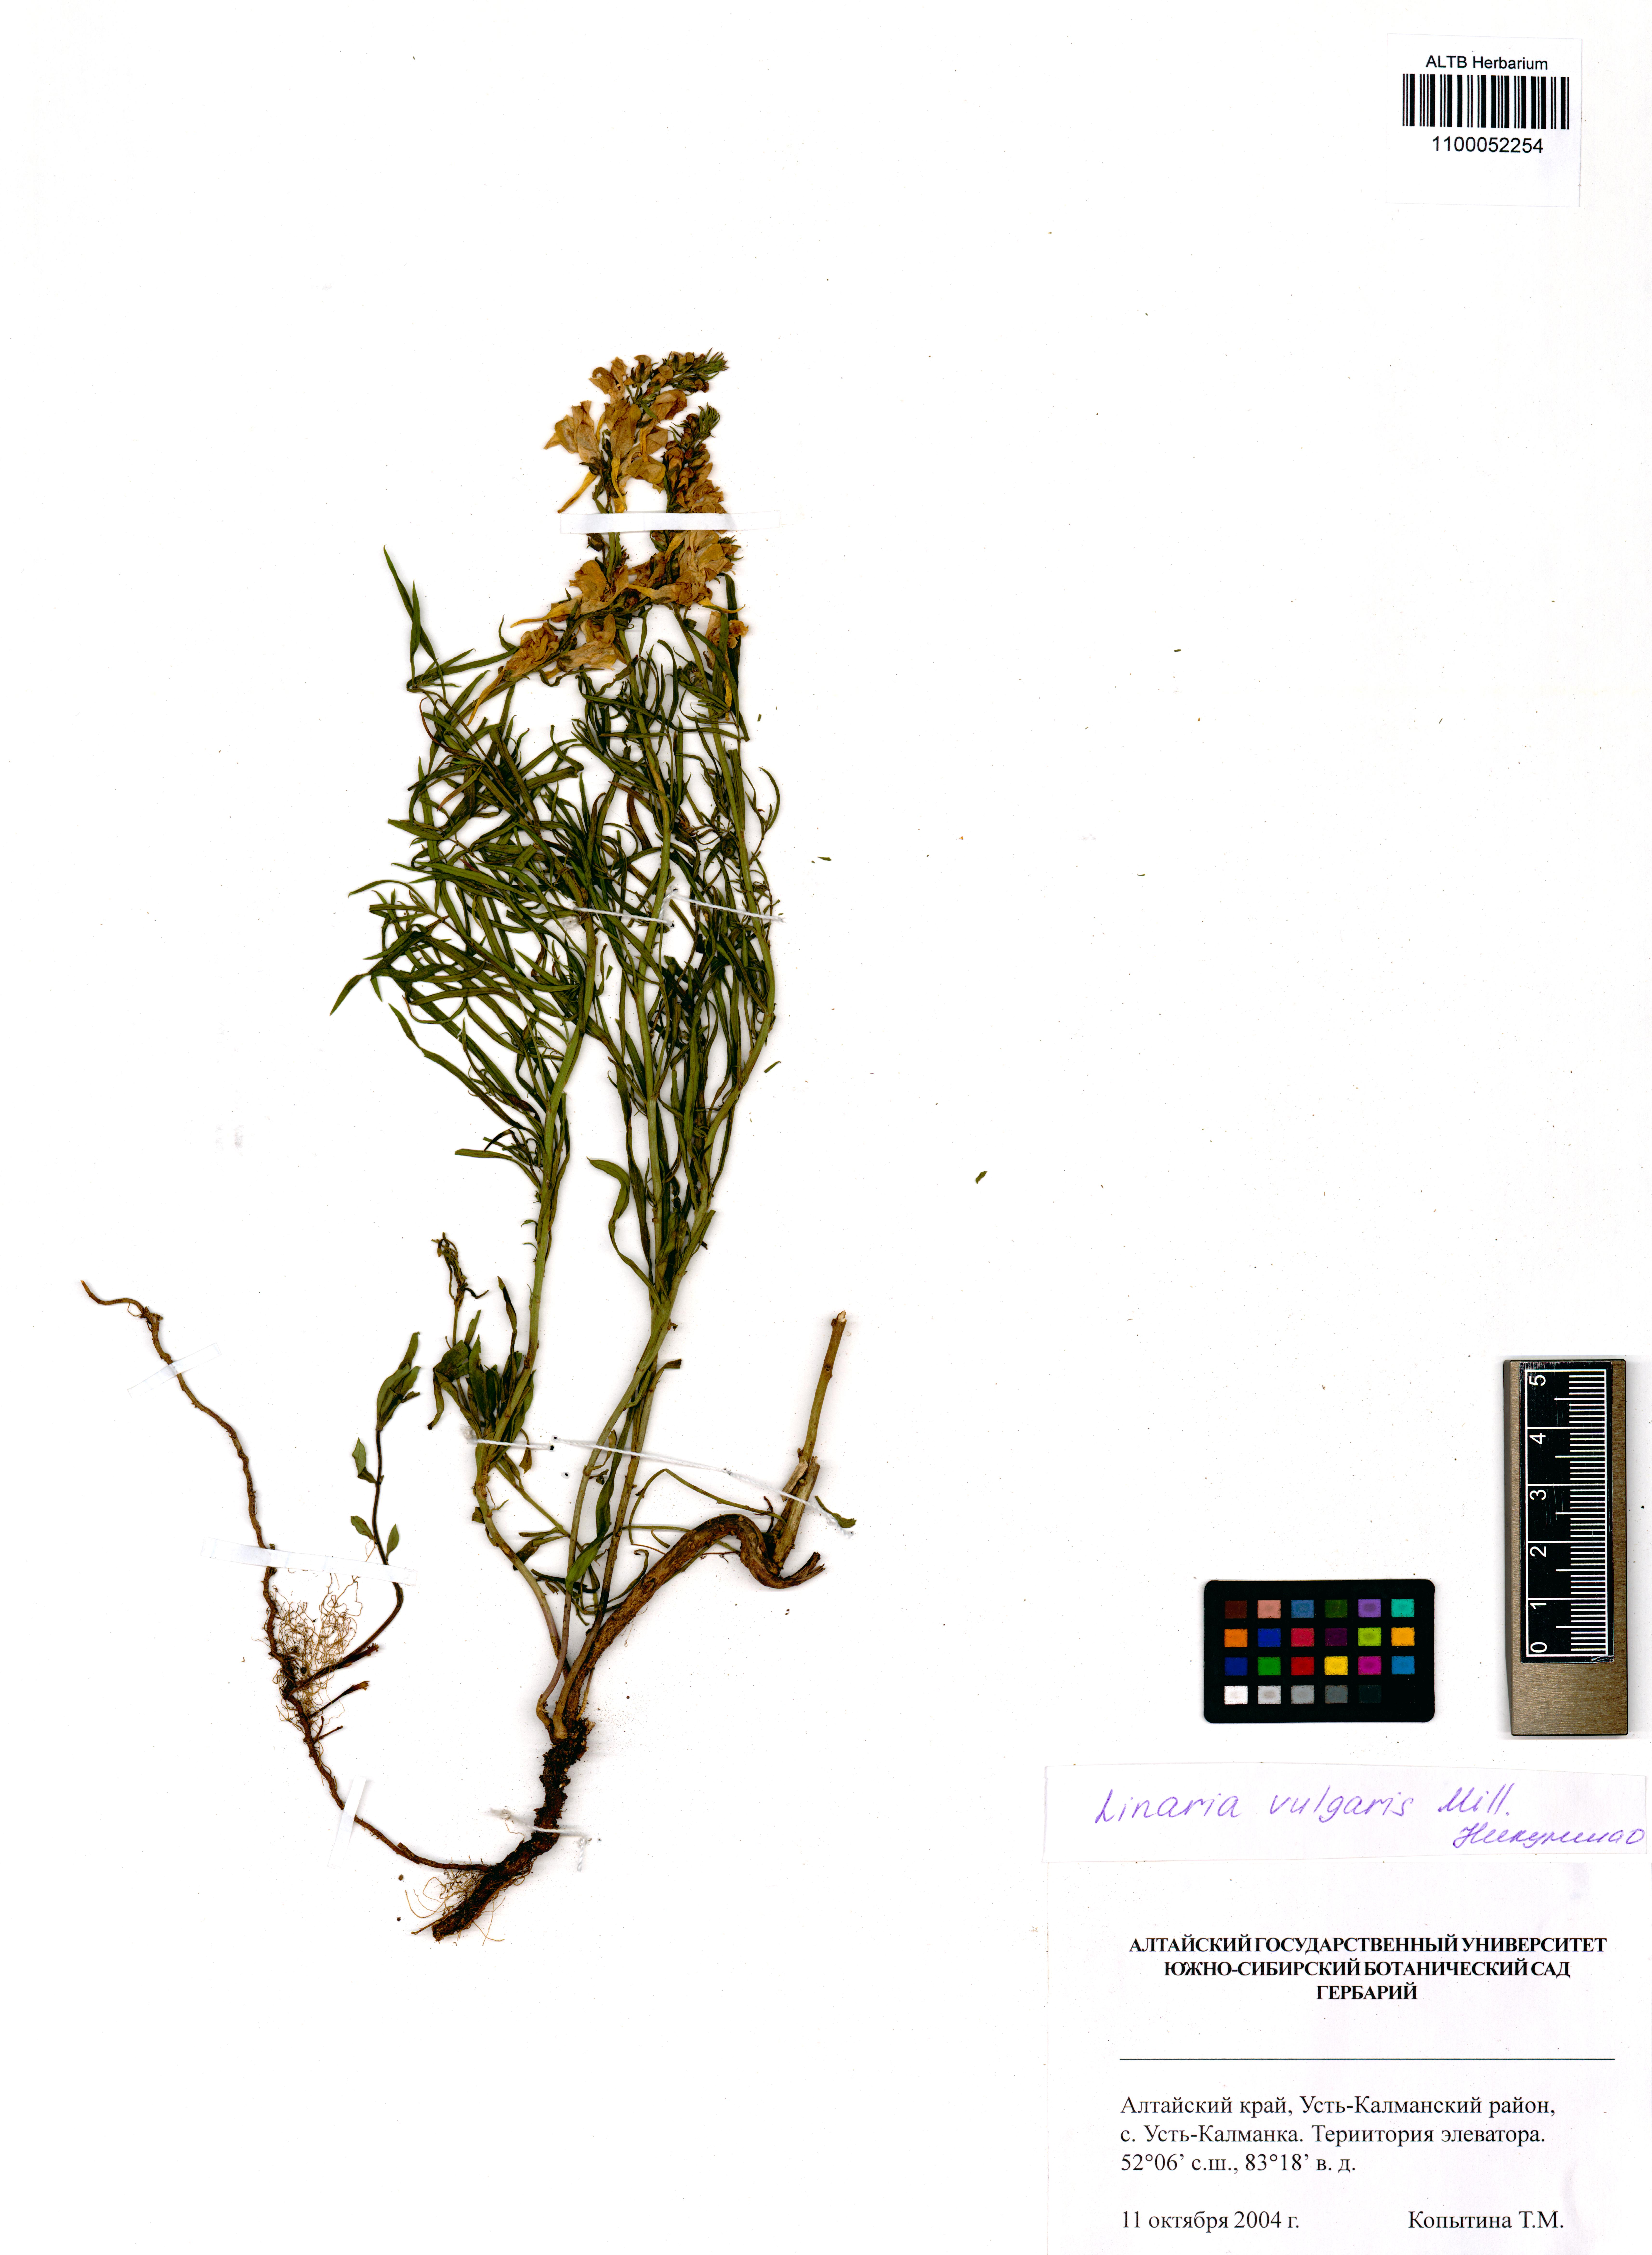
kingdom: Plantae
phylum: Tracheophyta
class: Magnoliopsida
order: Lamiales
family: Plantaginaceae
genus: Linaria
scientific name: Linaria vulgaris
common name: Butter and eggs
